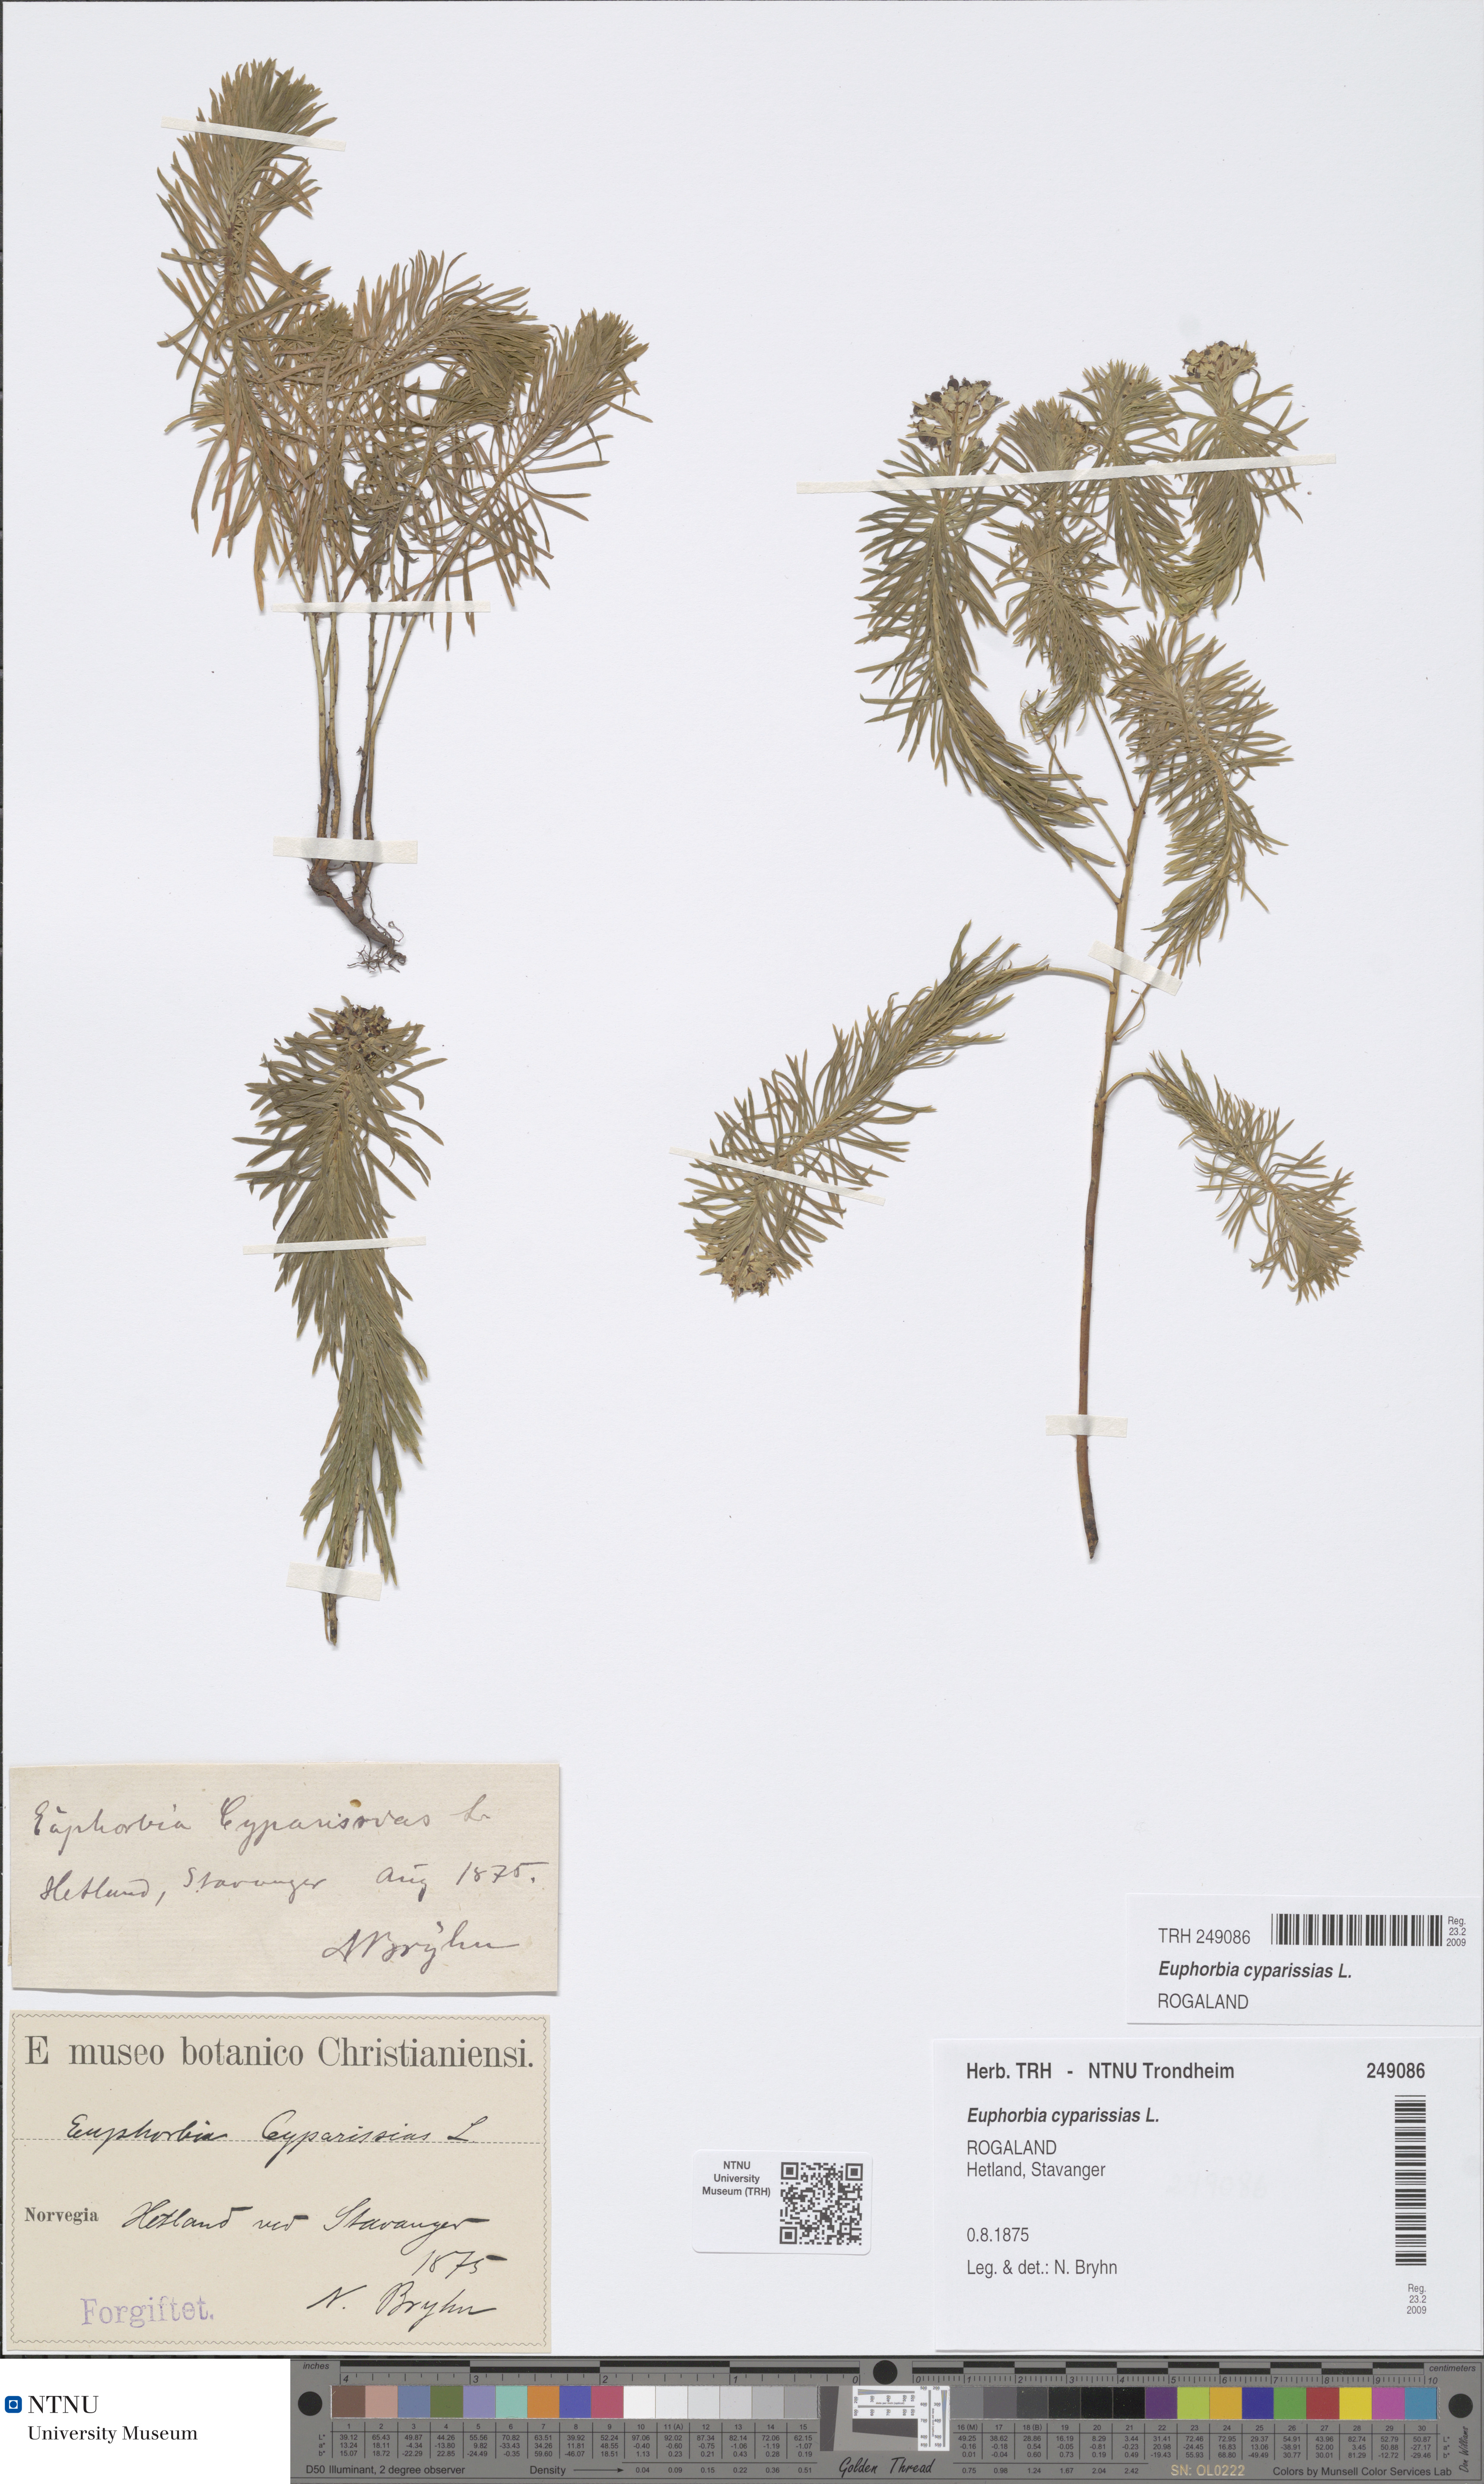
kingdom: Plantae
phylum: Tracheophyta
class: Magnoliopsida
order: Malpighiales
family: Euphorbiaceae
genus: Euphorbia
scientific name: Euphorbia cyparissias
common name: Cypress spurge
